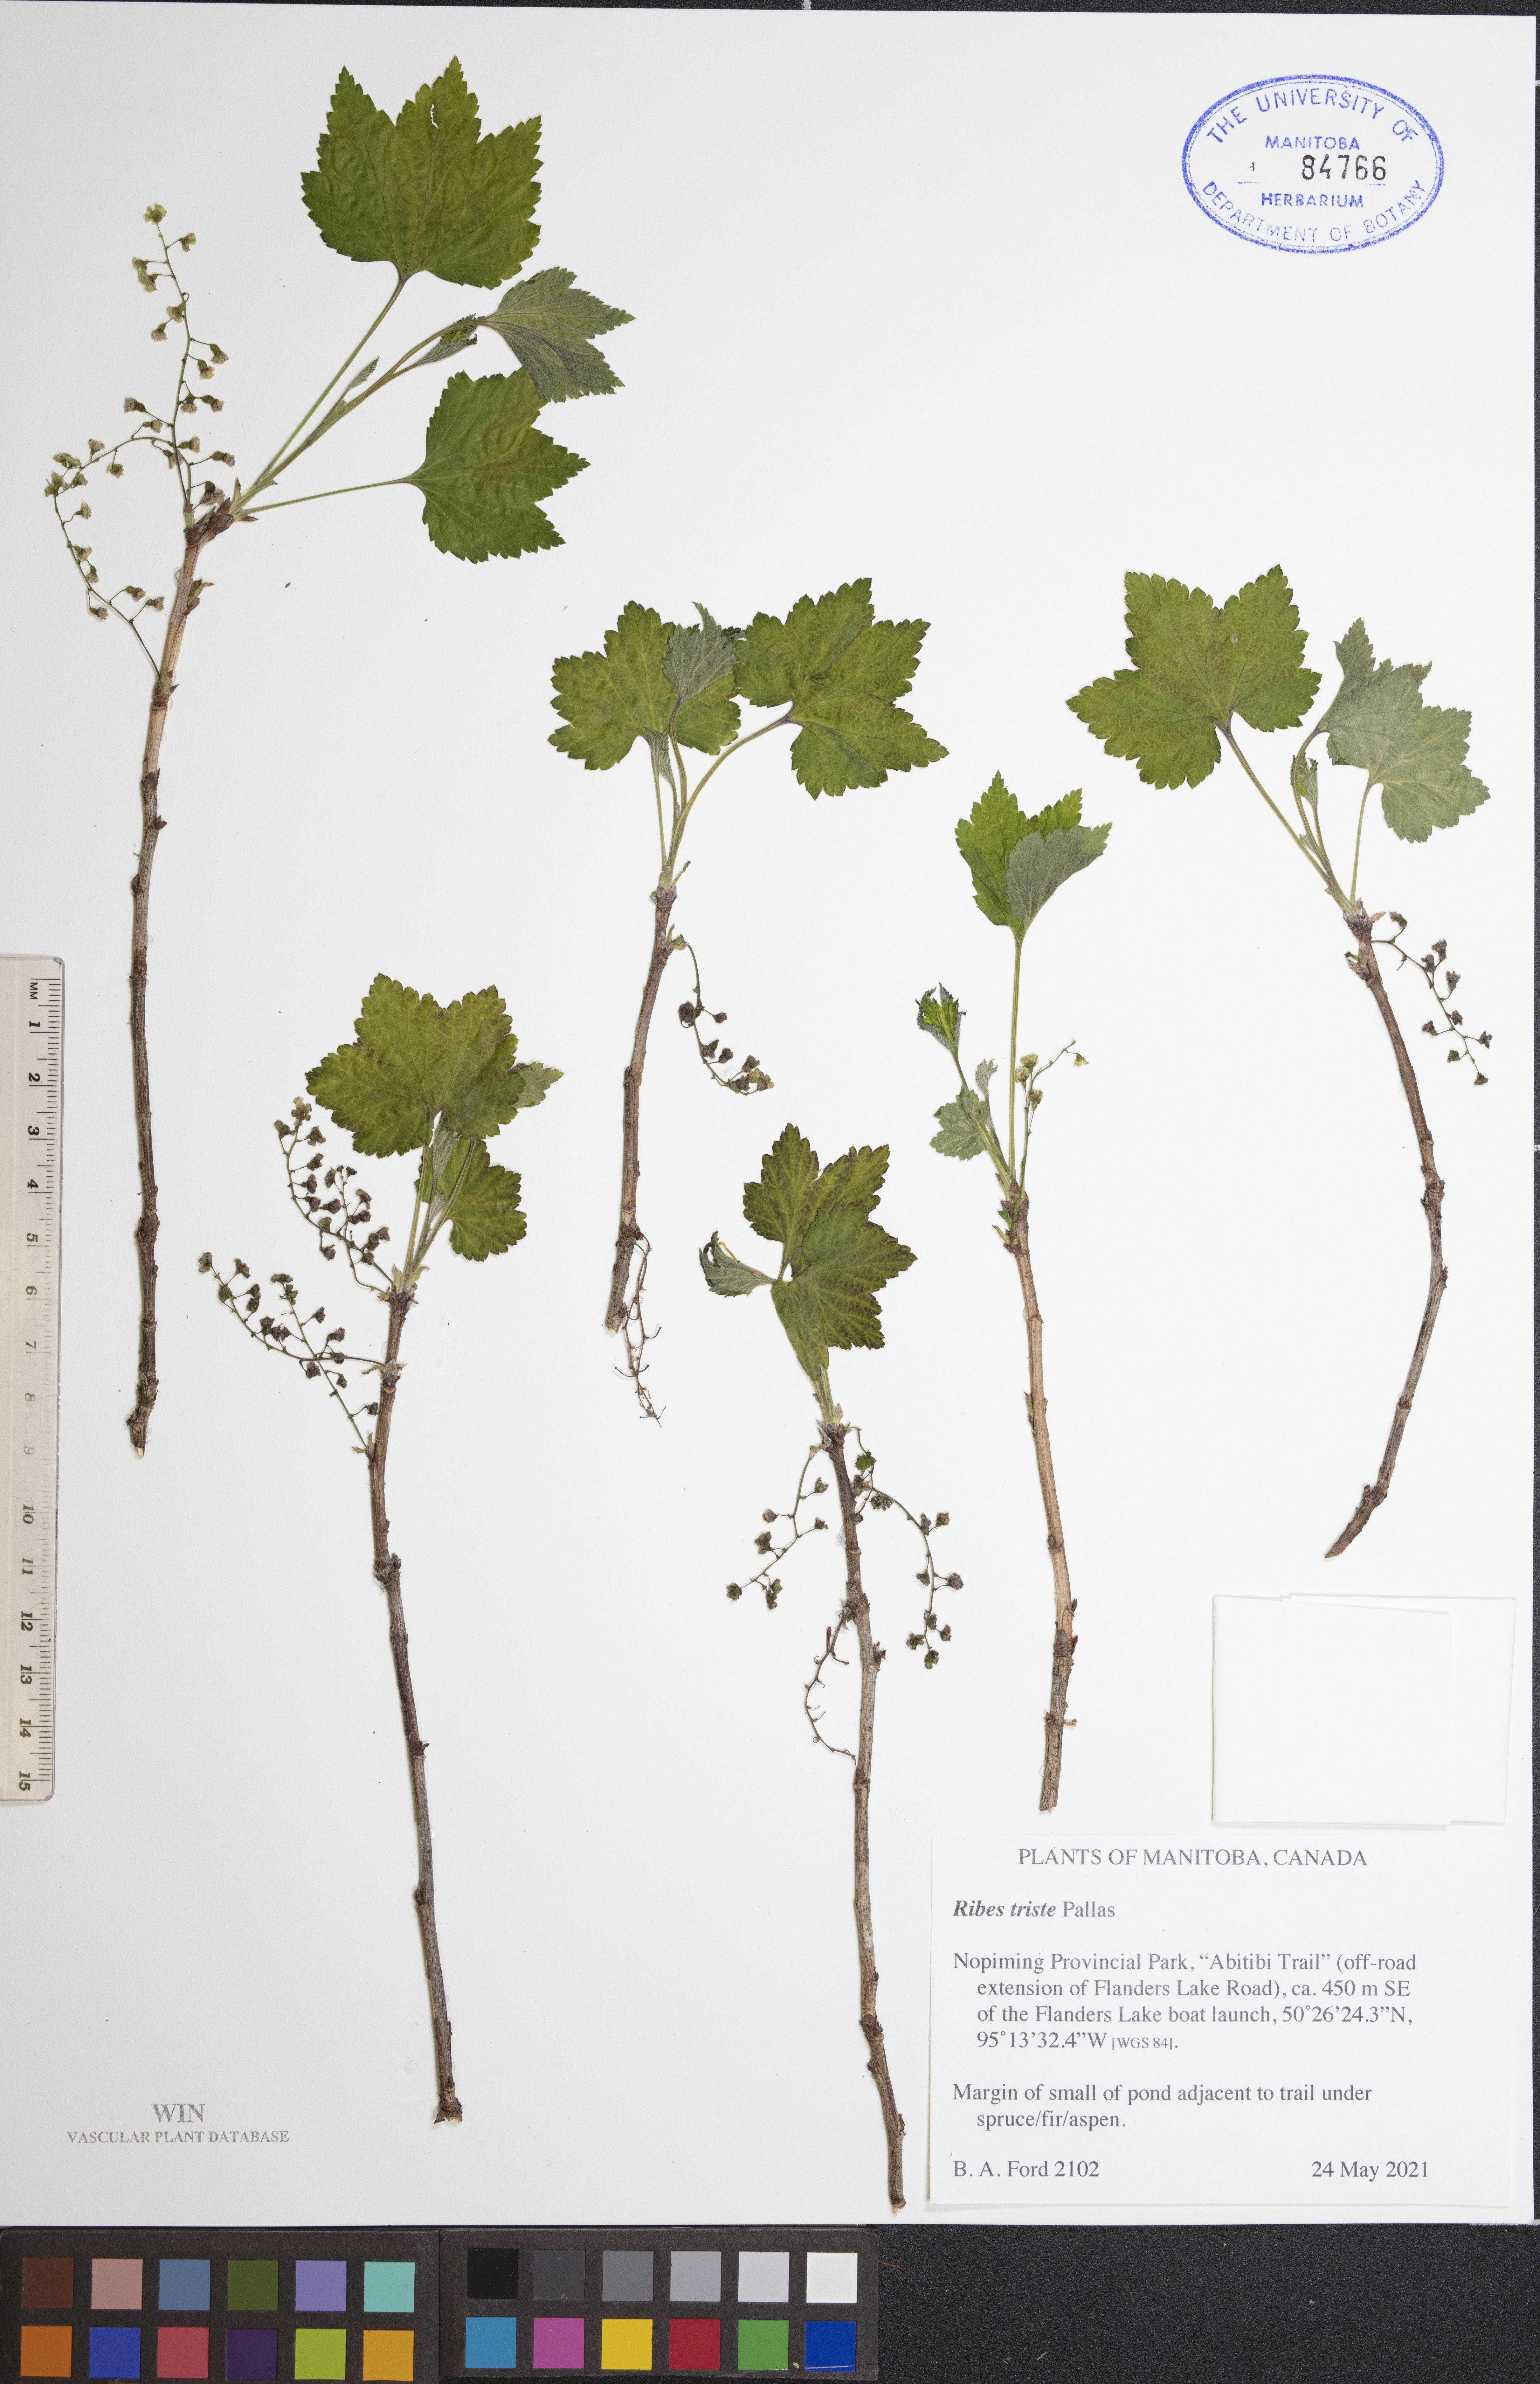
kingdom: Plantae
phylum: Tracheophyta
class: Magnoliopsida
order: Saxifragales
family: Grossulariaceae
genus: Ribes
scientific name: Ribes triste
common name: Swamp red currant
